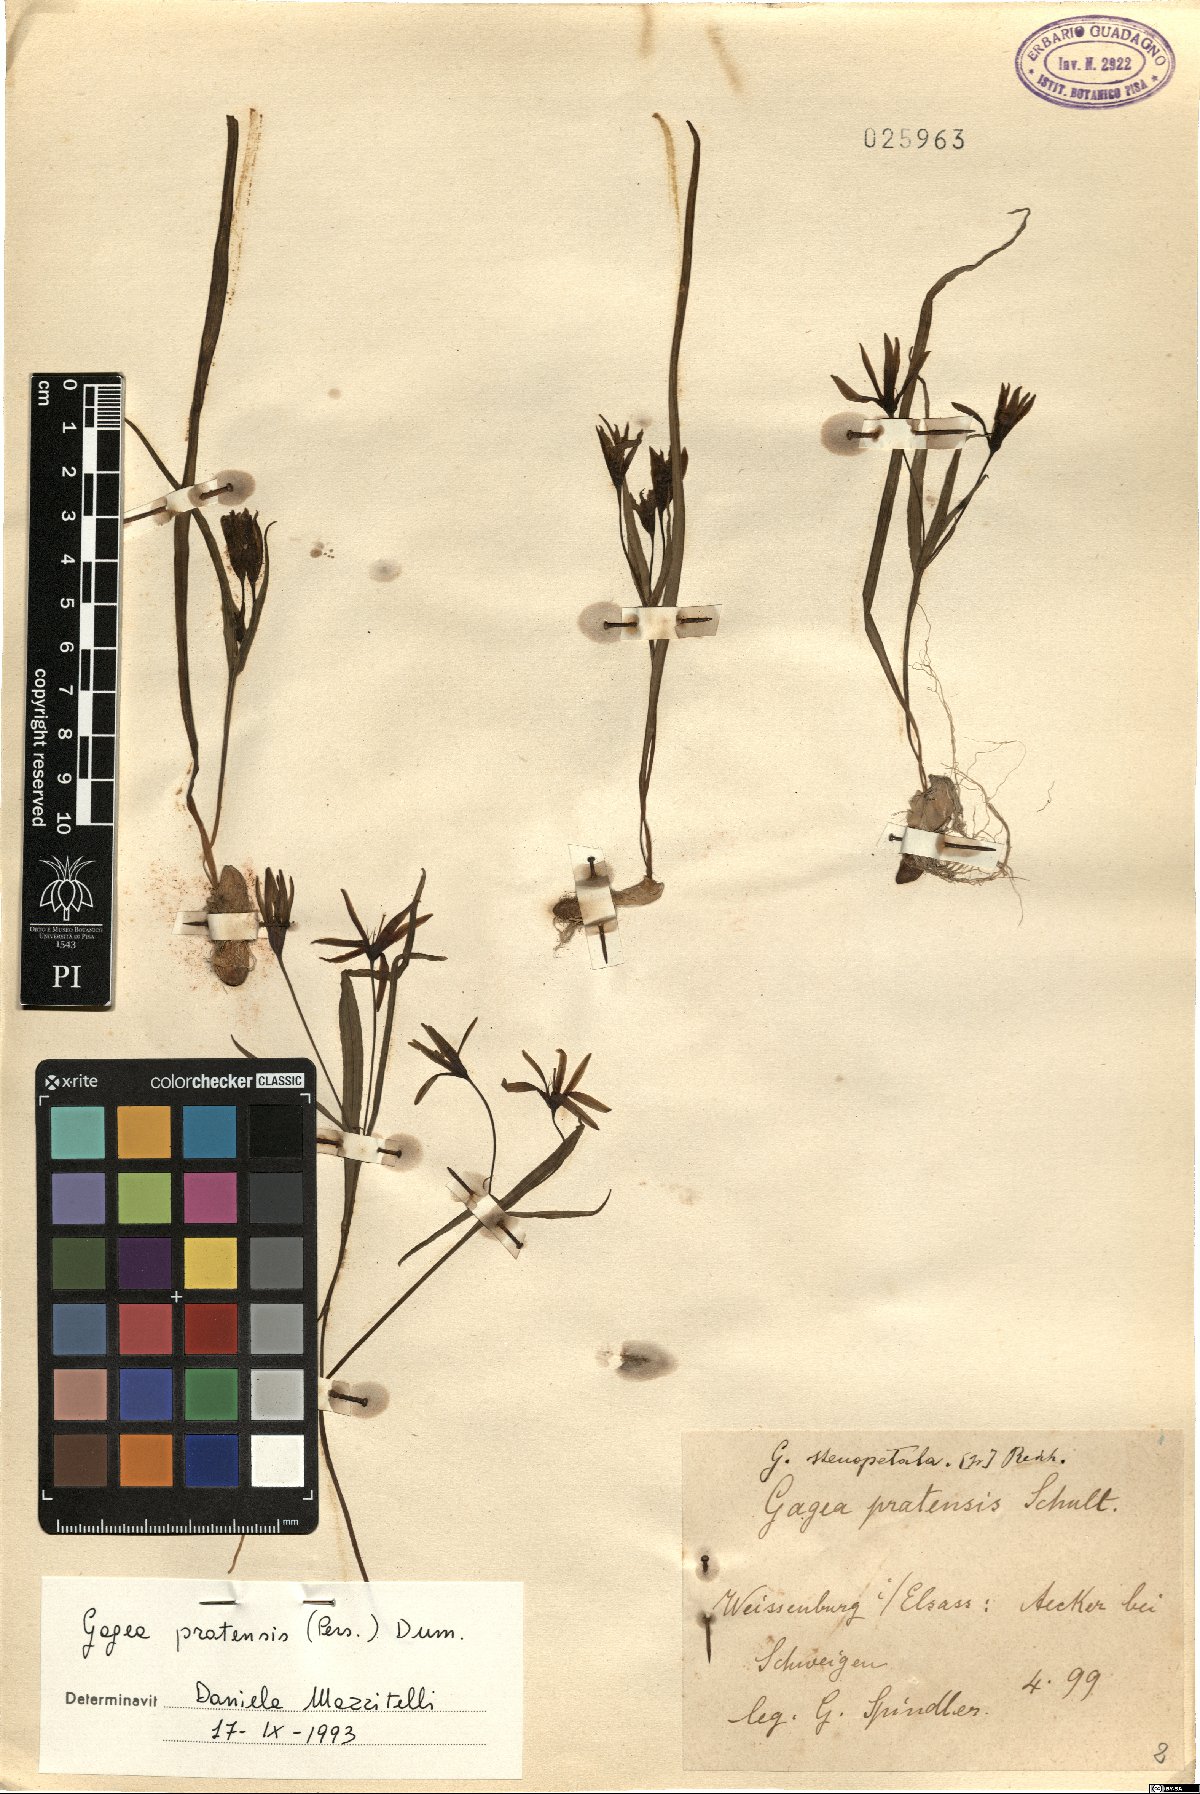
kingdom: Plantae
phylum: Tracheophyta
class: Liliopsida
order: Liliales
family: Liliaceae
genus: Gagea
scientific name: Gagea pratensis
